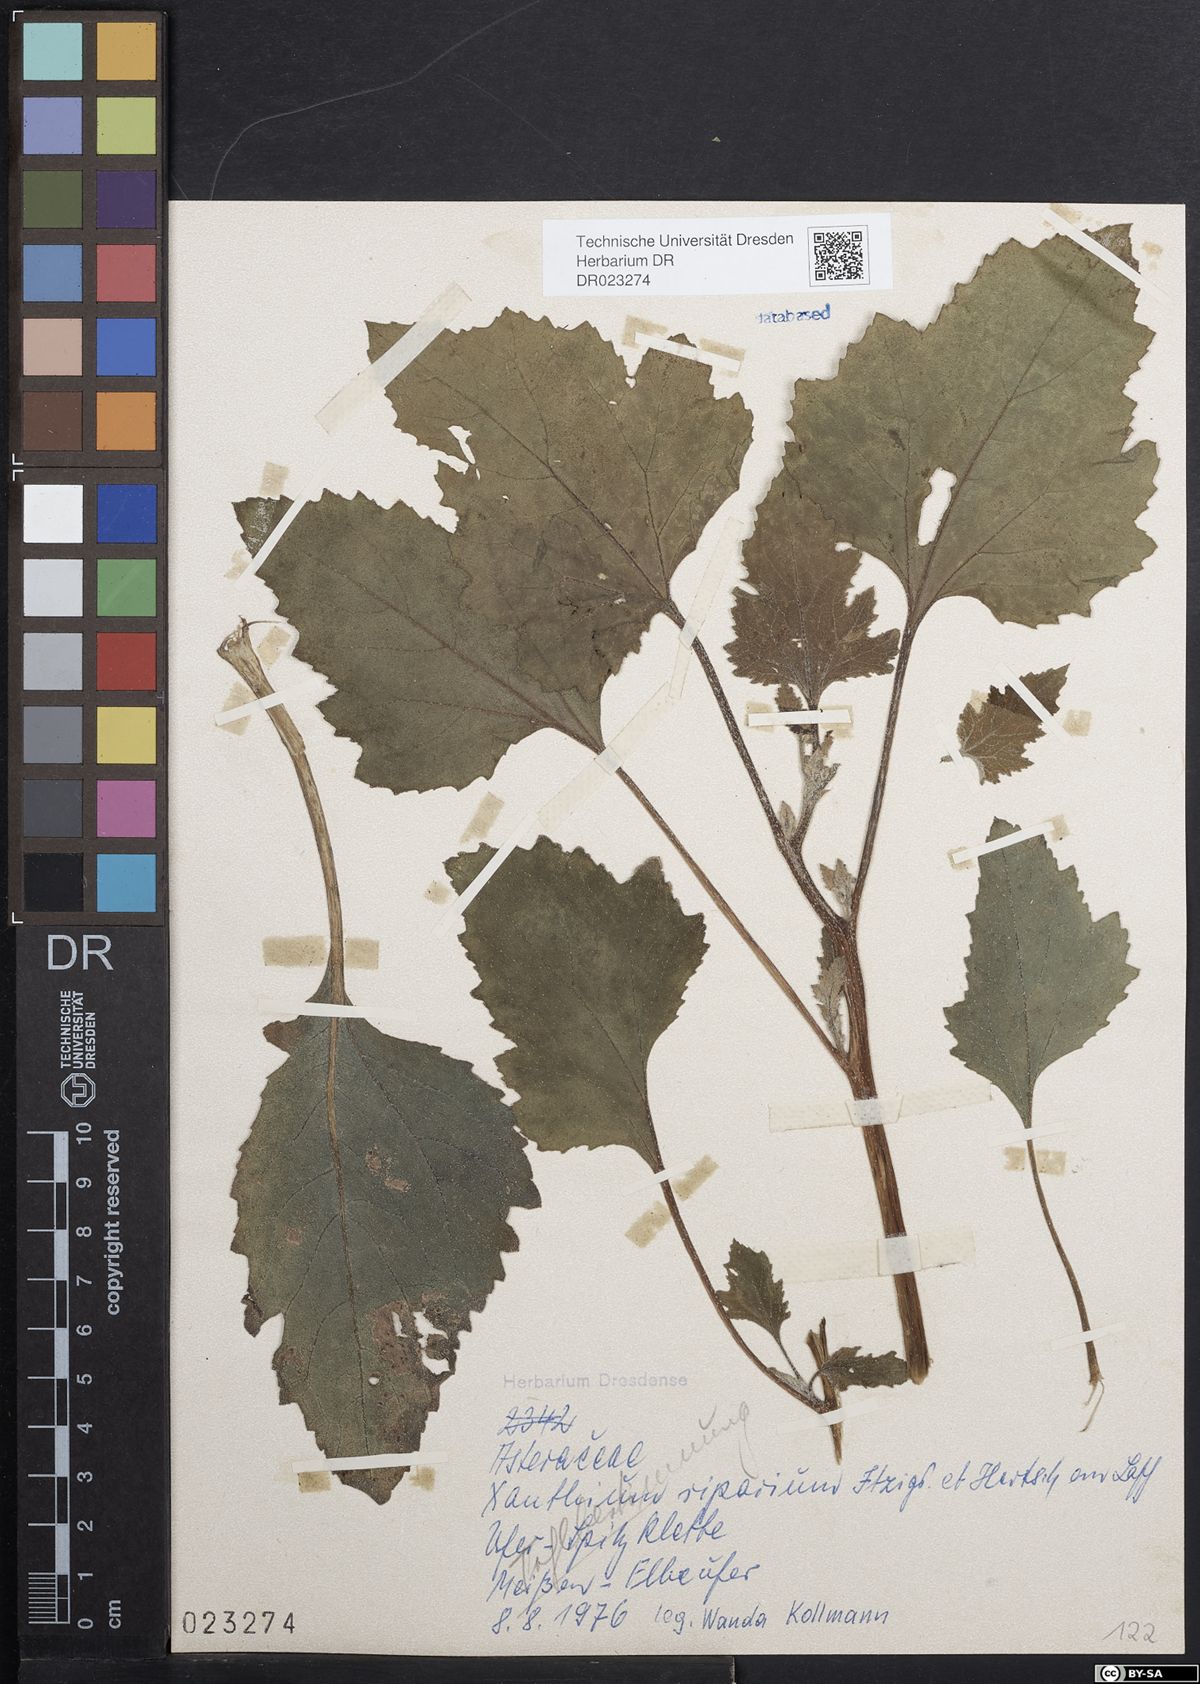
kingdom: Plantae
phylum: Tracheophyta
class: Magnoliopsida
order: Asterales
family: Asteraceae
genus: Xanthium
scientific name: Xanthium orientale
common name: Californian burr
